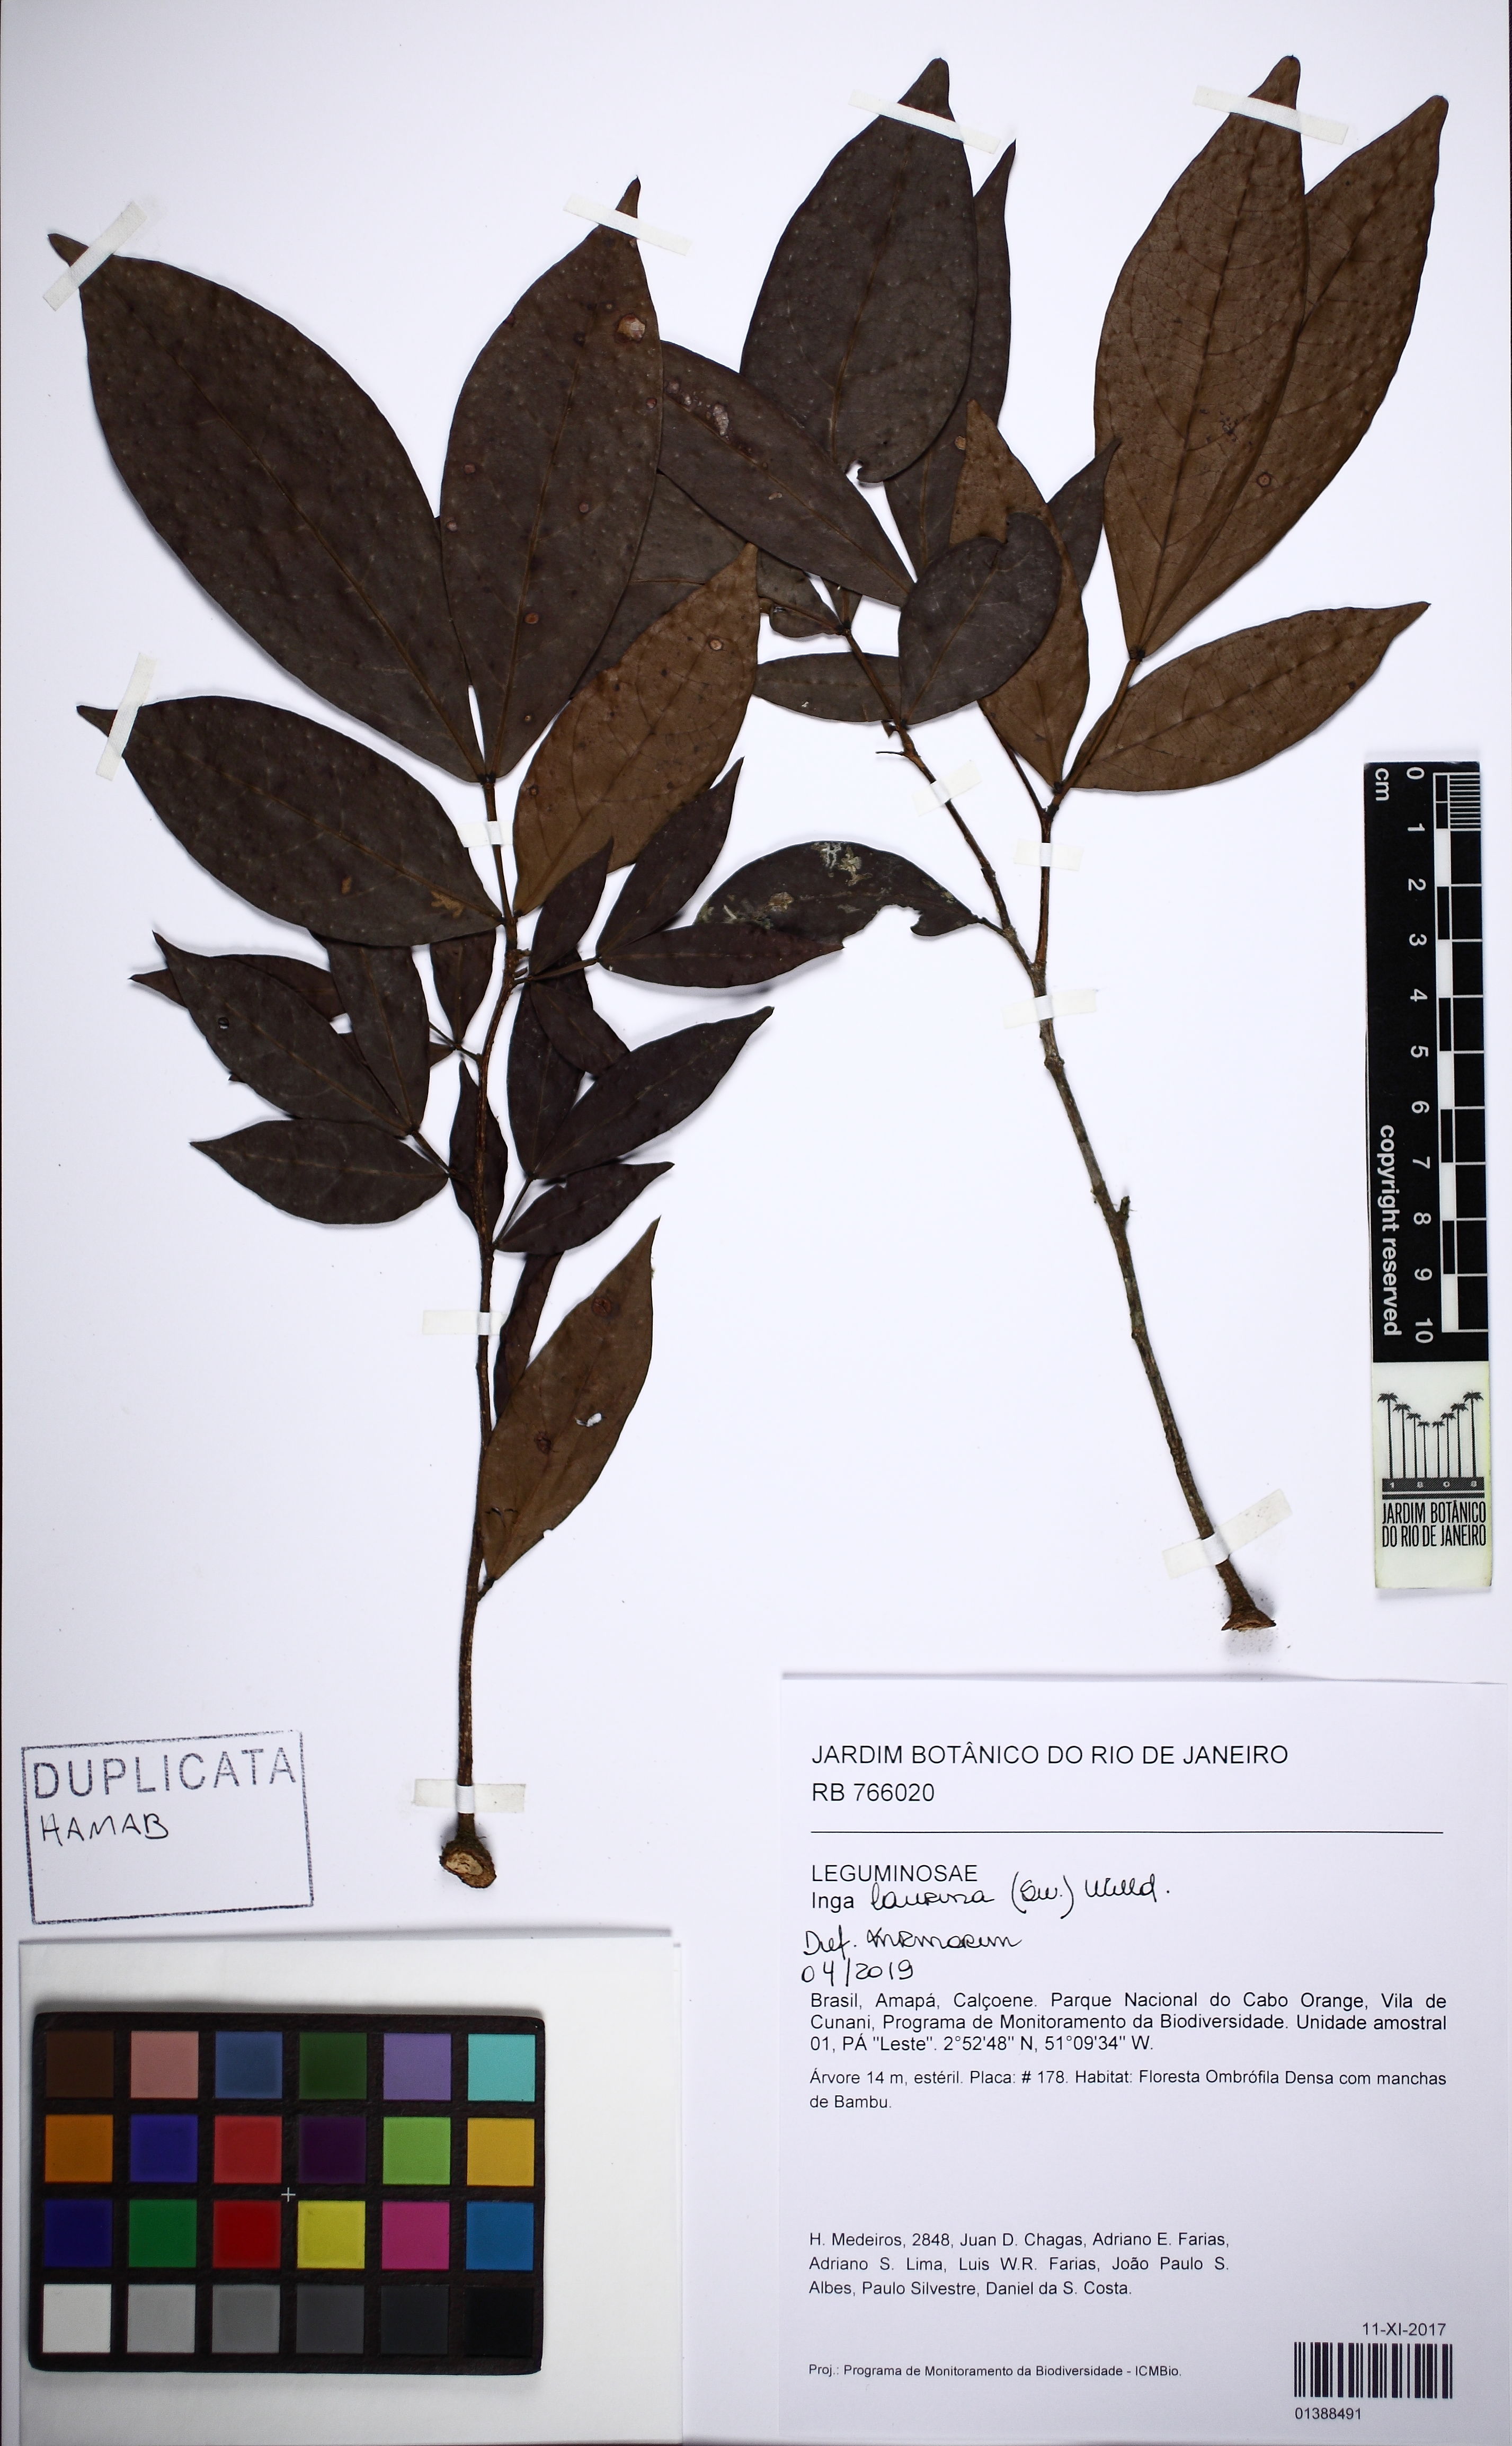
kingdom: Plantae
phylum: Tracheophyta
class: Magnoliopsida
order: Fabales
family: Fabaceae
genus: Inga
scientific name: Inga
